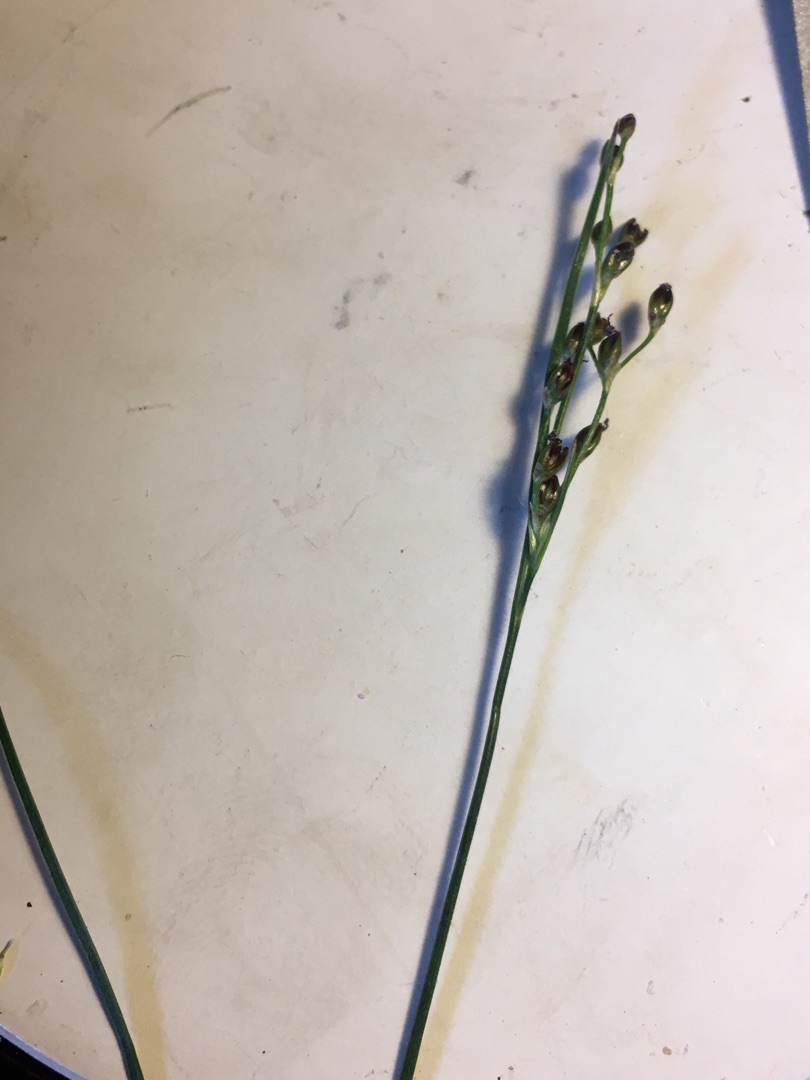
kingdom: Plantae
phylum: Tracheophyta
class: Liliopsida
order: Poales
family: Juncaceae
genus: Juncus
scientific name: Juncus gerardi
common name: Harril
